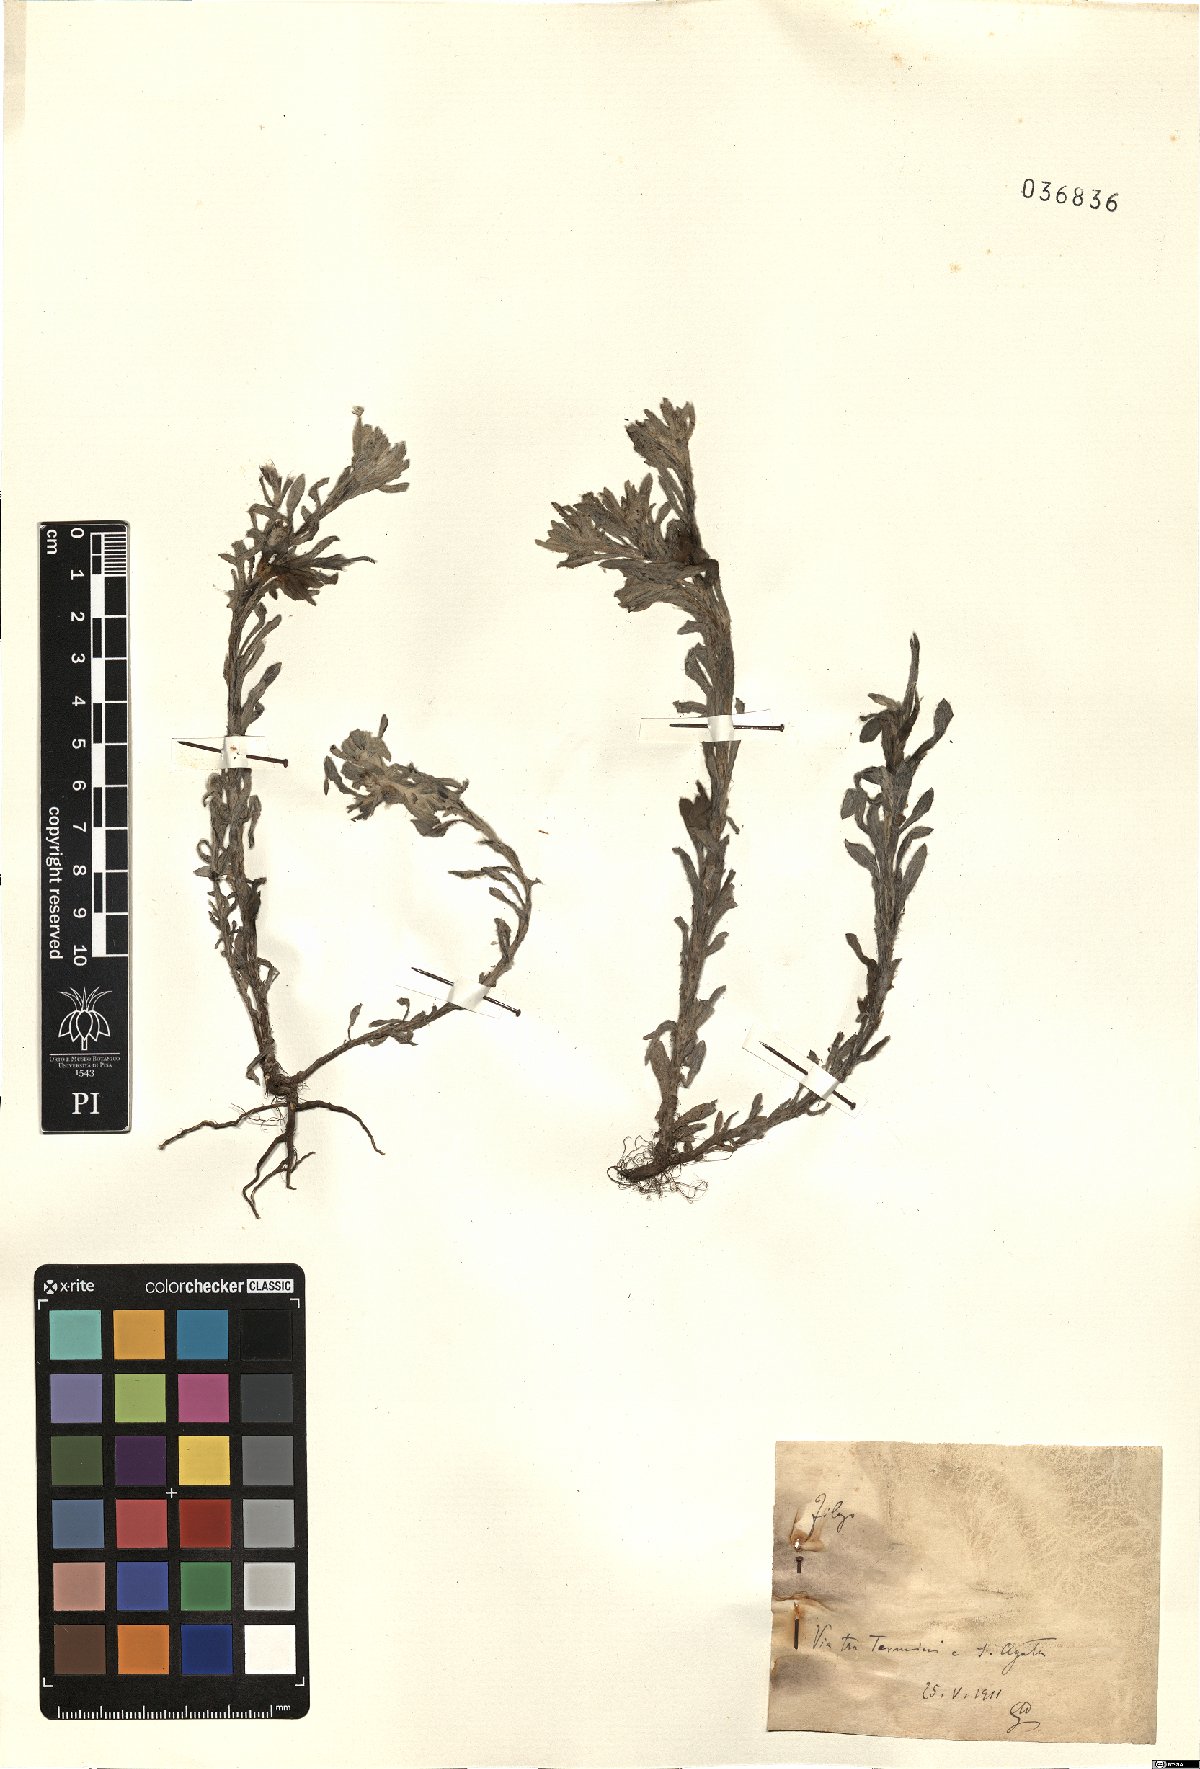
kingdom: Plantae
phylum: Tracheophyta
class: Magnoliopsida
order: Asterales
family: Asteraceae
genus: Filago
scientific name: Filago germanica
